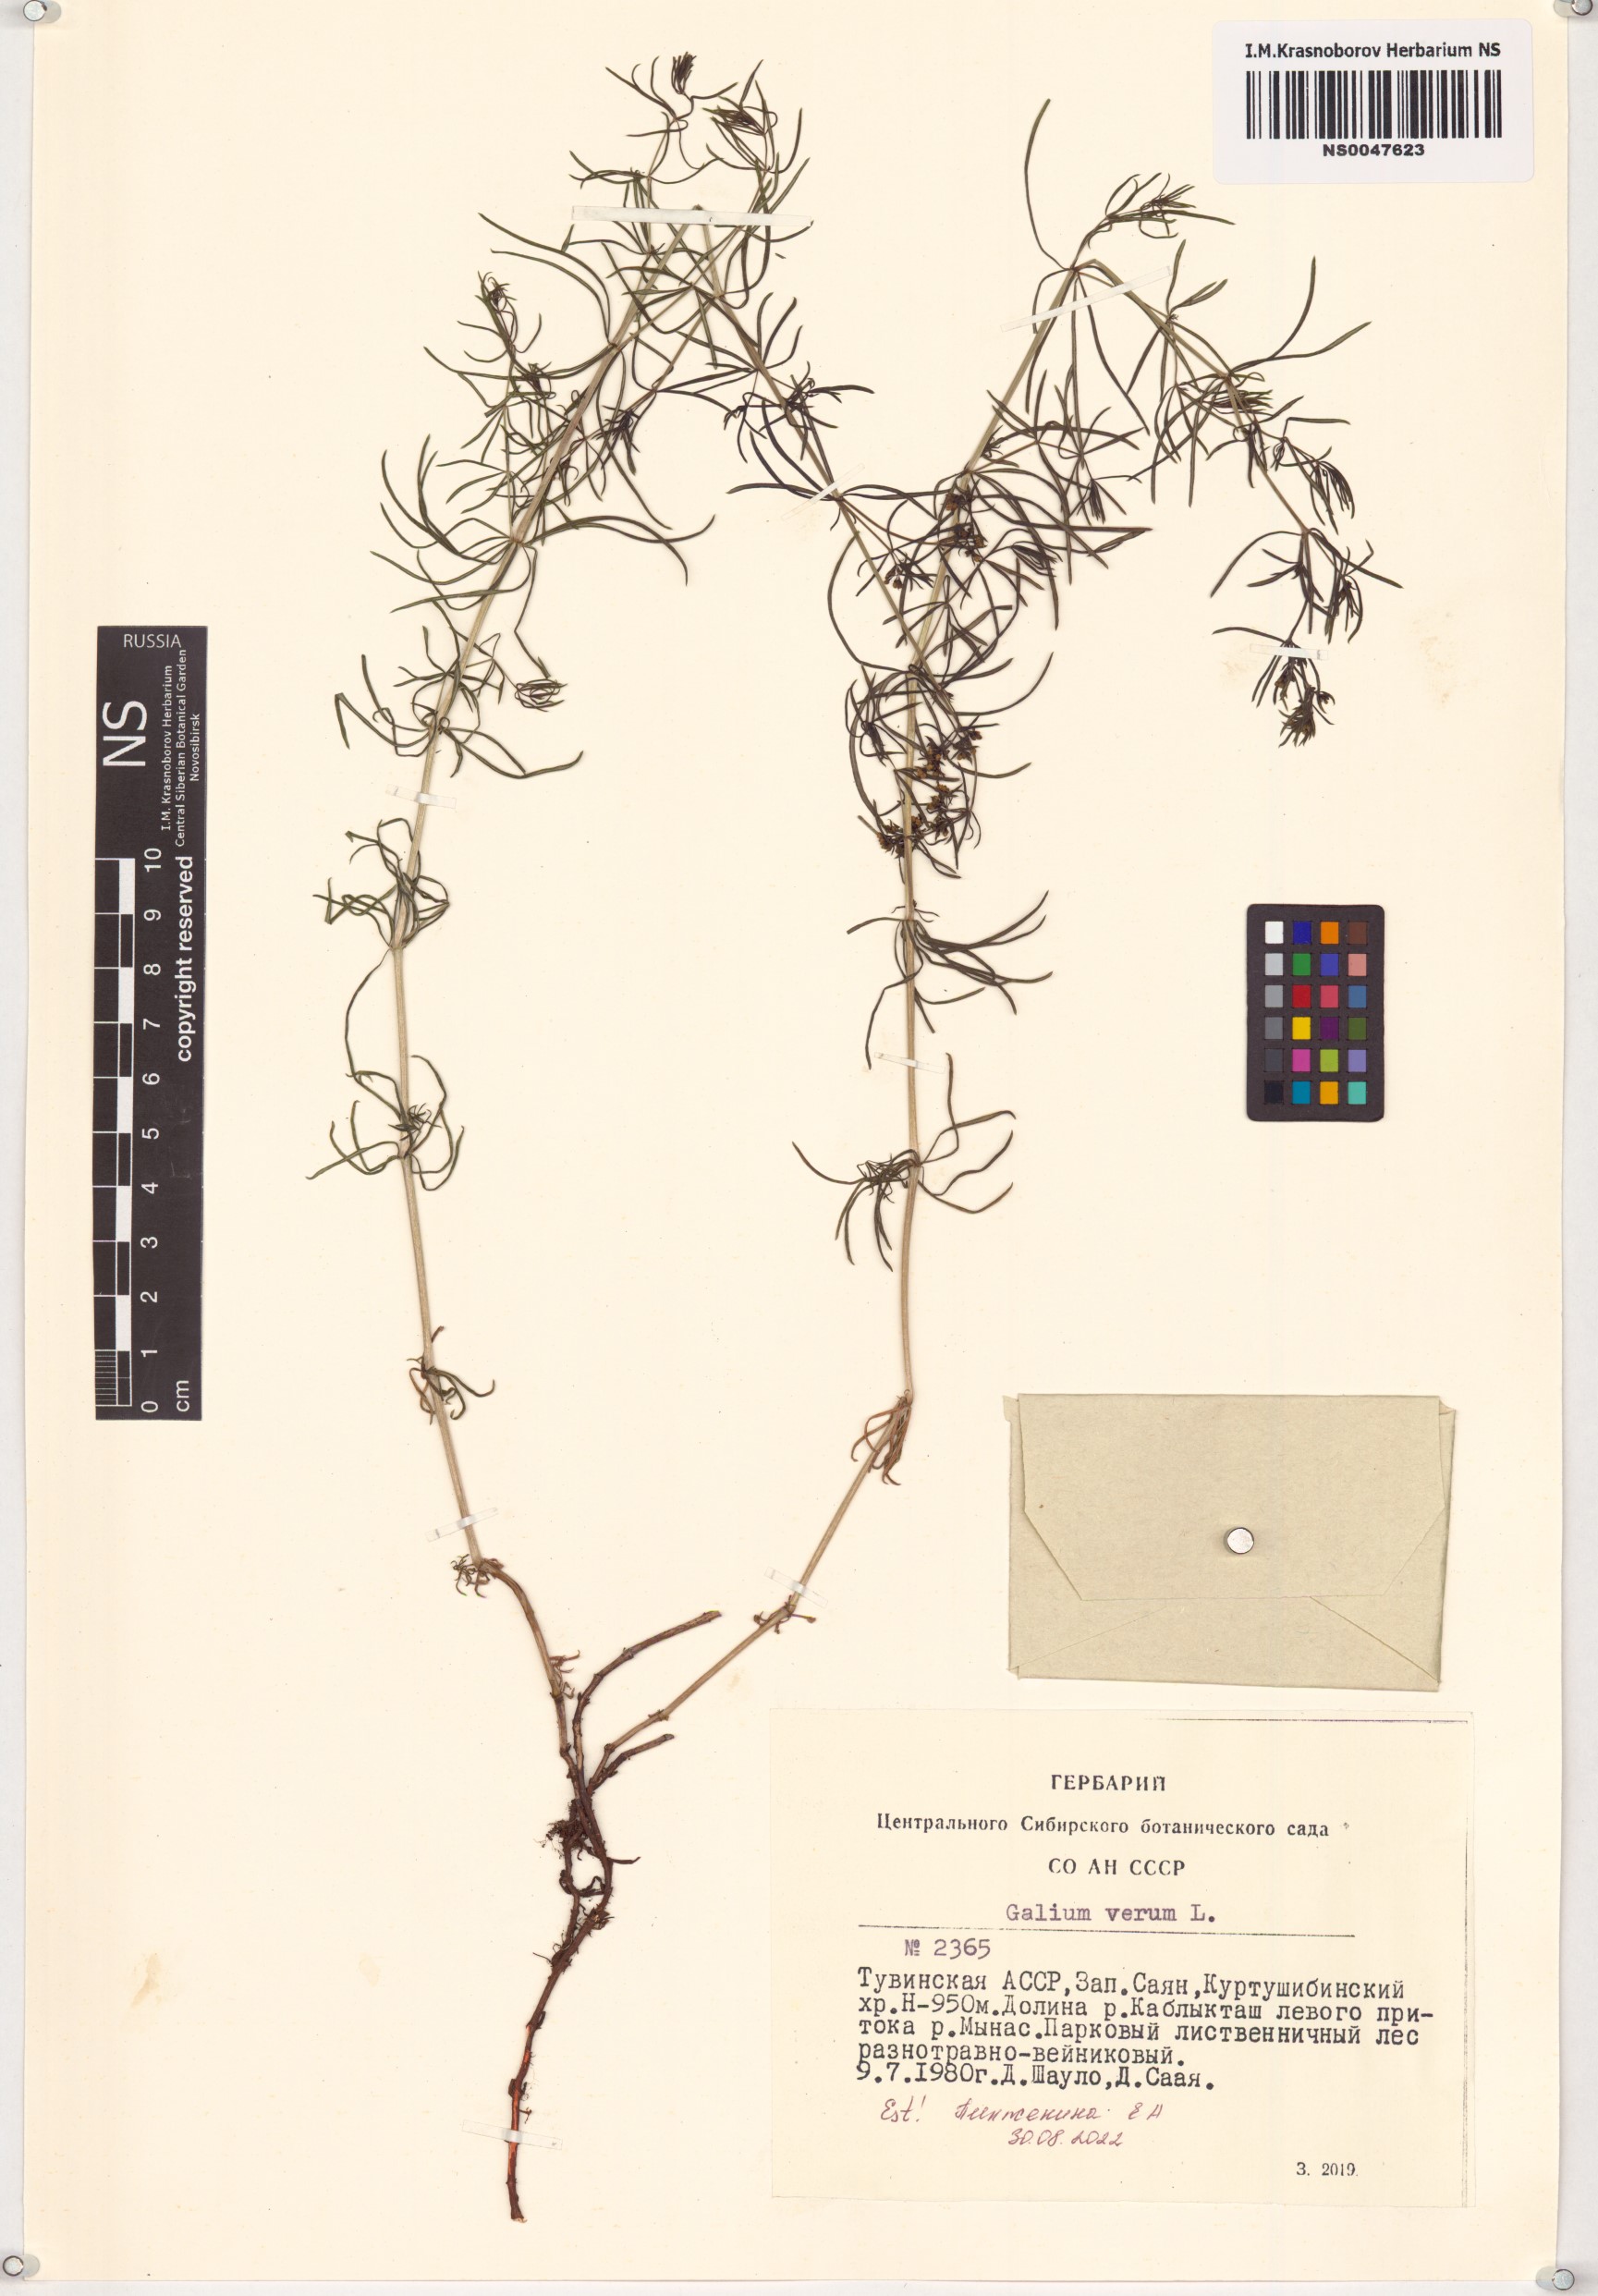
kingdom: Plantae
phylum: Tracheophyta
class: Magnoliopsida
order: Gentianales
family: Rubiaceae
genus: Galium
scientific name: Galium verum
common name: Lady's bedstraw
